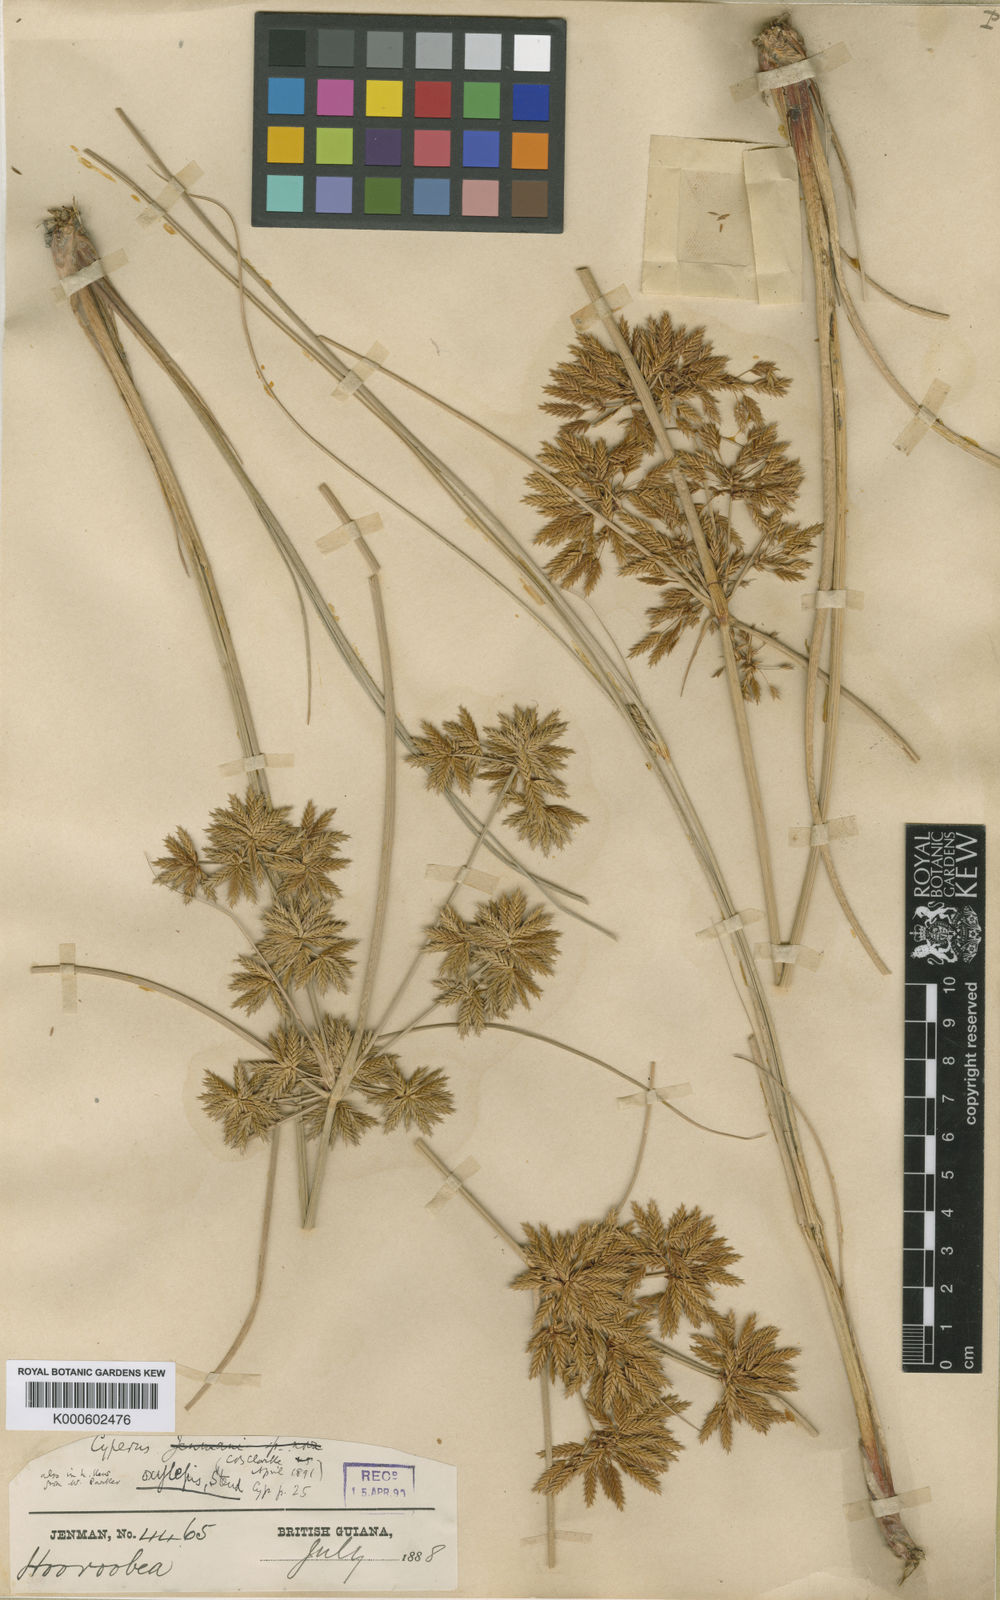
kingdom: Plantae
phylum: Tracheophyta
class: Liliopsida
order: Poales
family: Cyperaceae
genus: Cyperus
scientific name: Cyperus oxylepis
